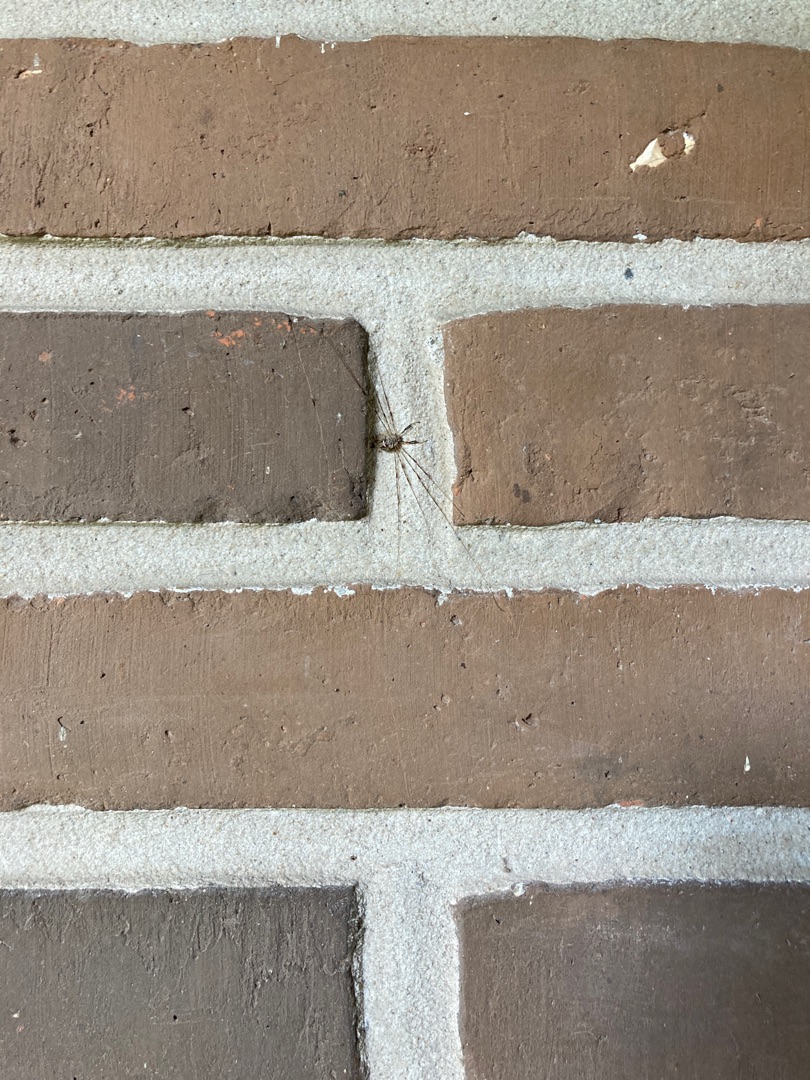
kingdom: Animalia
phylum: Arthropoda
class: Arachnida
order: Opiliones
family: Phalangiidae
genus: Dicranopalpus
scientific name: Dicranopalpus ramosus
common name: Gaffelmejer
